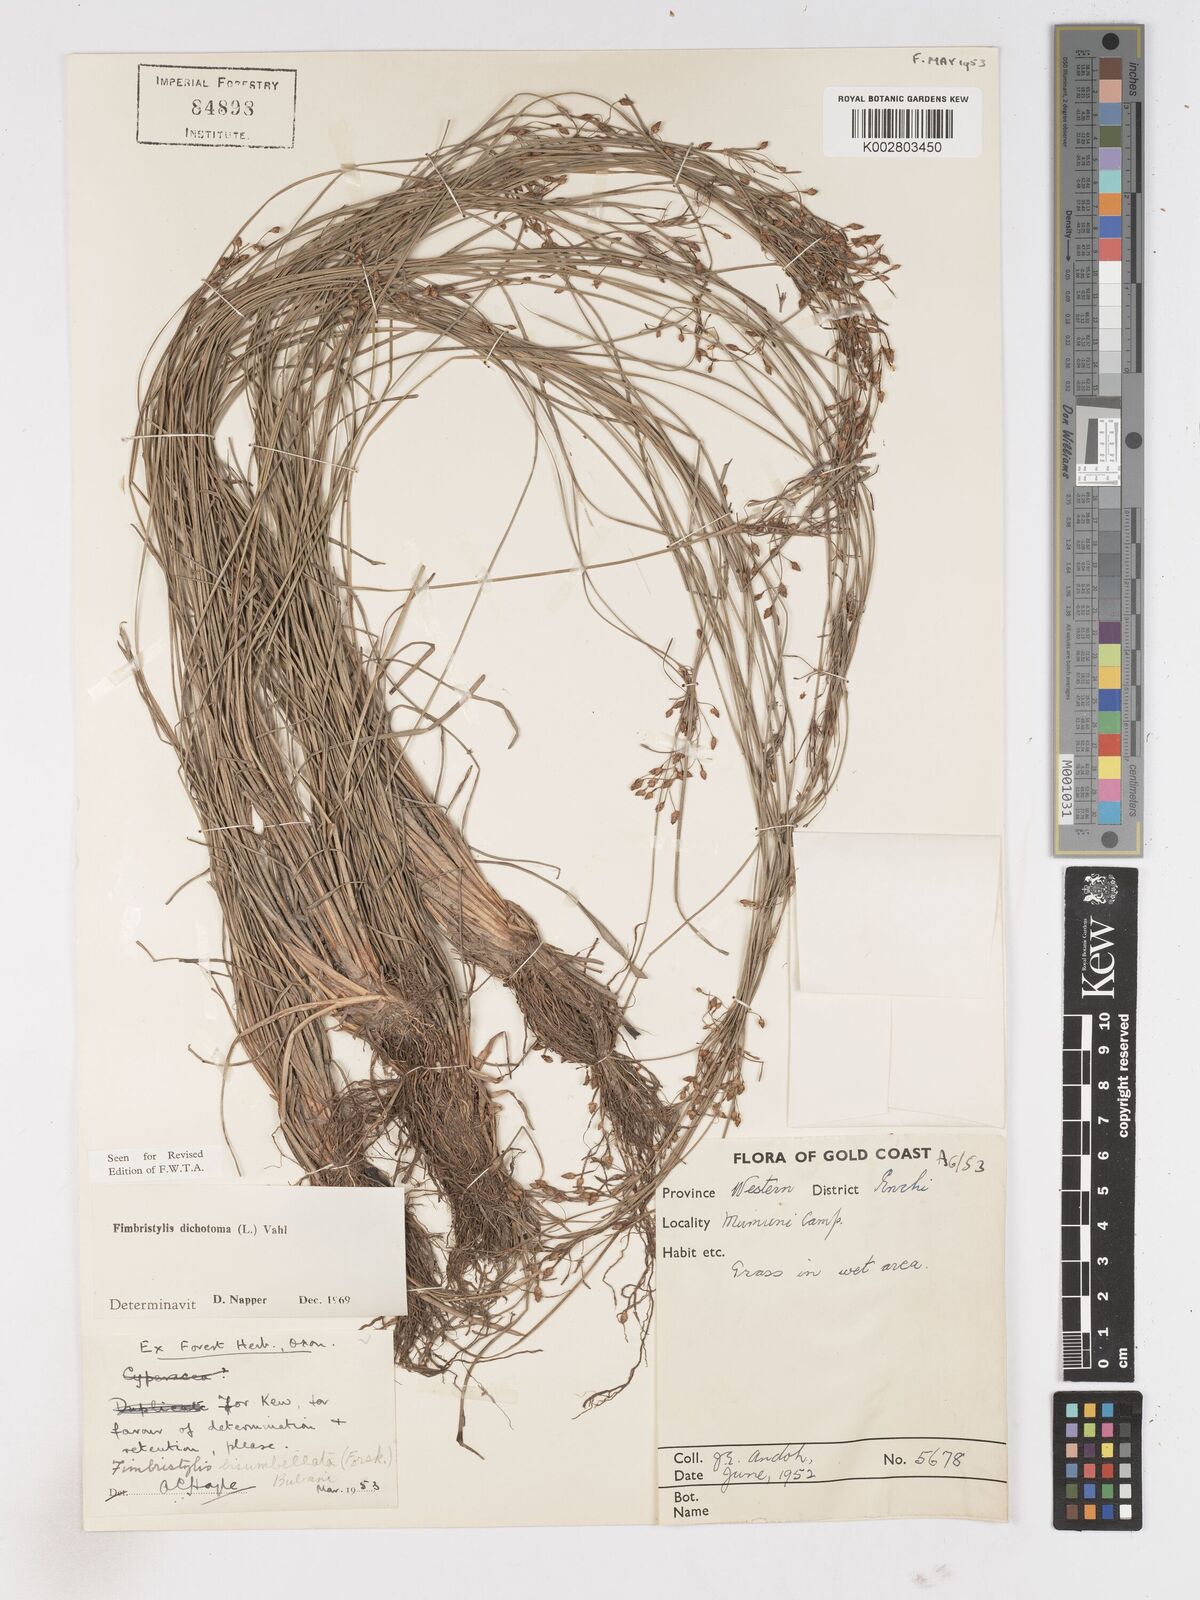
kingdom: Plantae
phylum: Tracheophyta
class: Liliopsida
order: Poales
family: Cyperaceae
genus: Fimbristylis
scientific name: Fimbristylis dichotoma
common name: Forked fimbry
